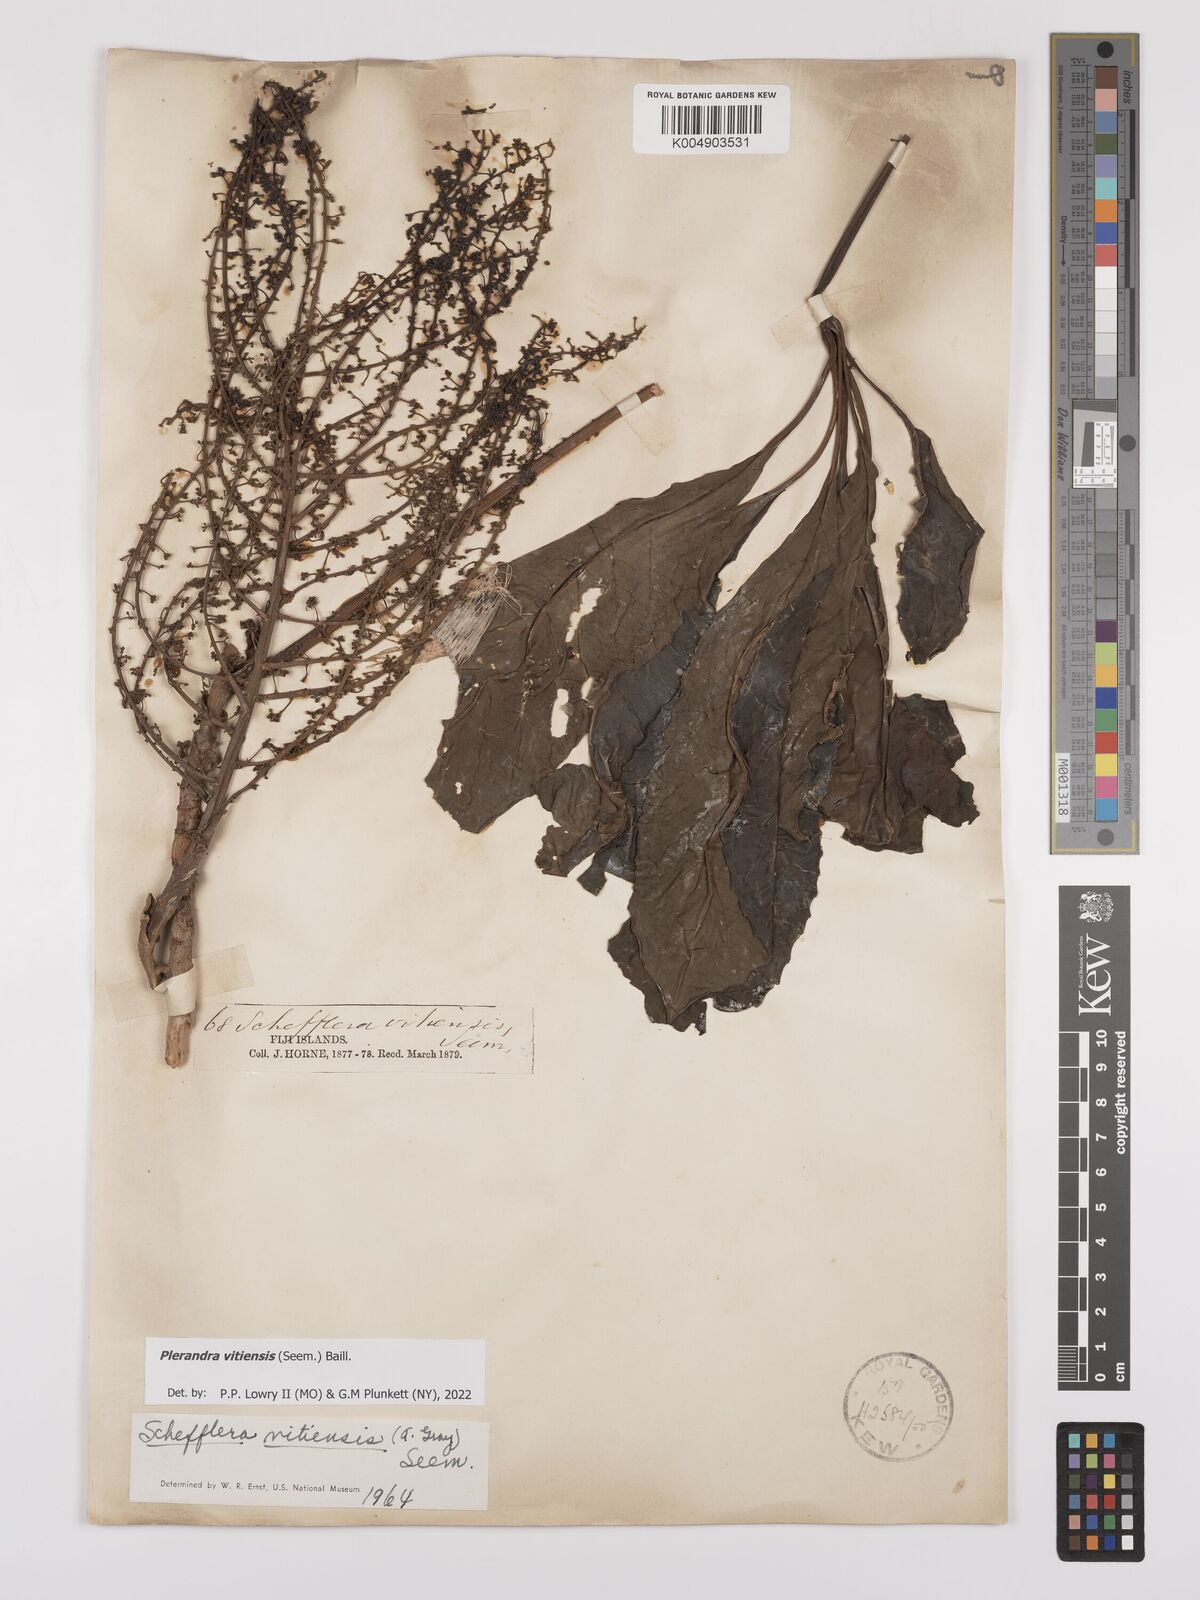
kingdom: Plantae
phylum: Tracheophyta
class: Magnoliopsida
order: Apiales
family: Araliaceae
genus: Schefflera
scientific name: Schefflera vitiensis
